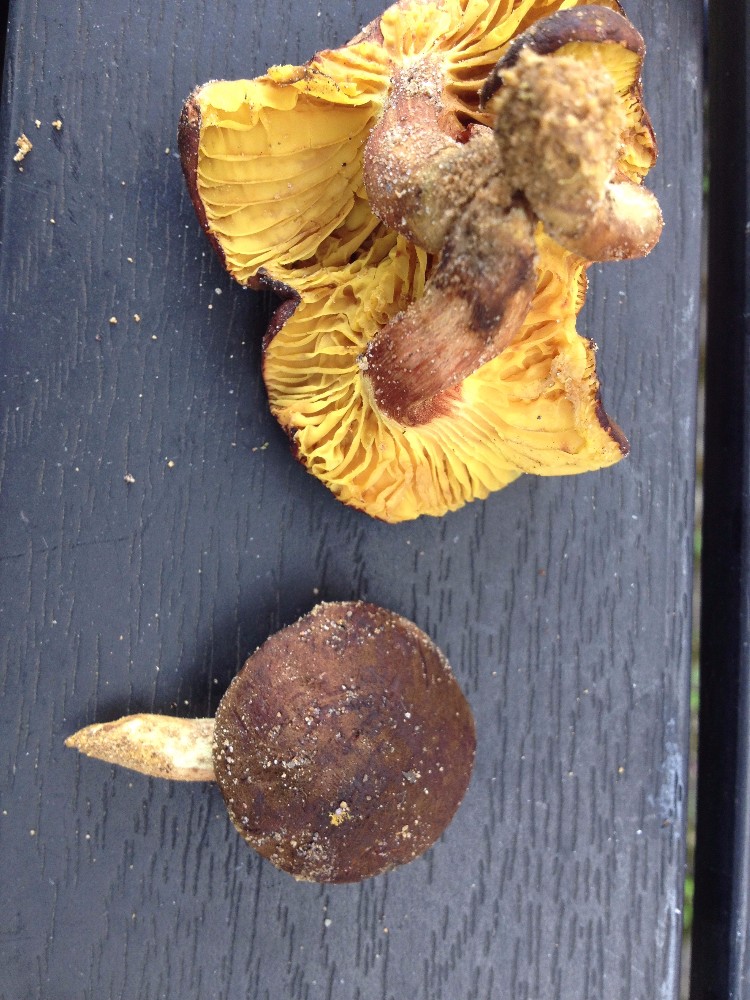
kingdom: Fungi
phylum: Basidiomycota
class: Agaricomycetes
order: Boletales
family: Boletaceae
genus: Phylloporus
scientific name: Phylloporus pelletieri
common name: lamelrørhat
